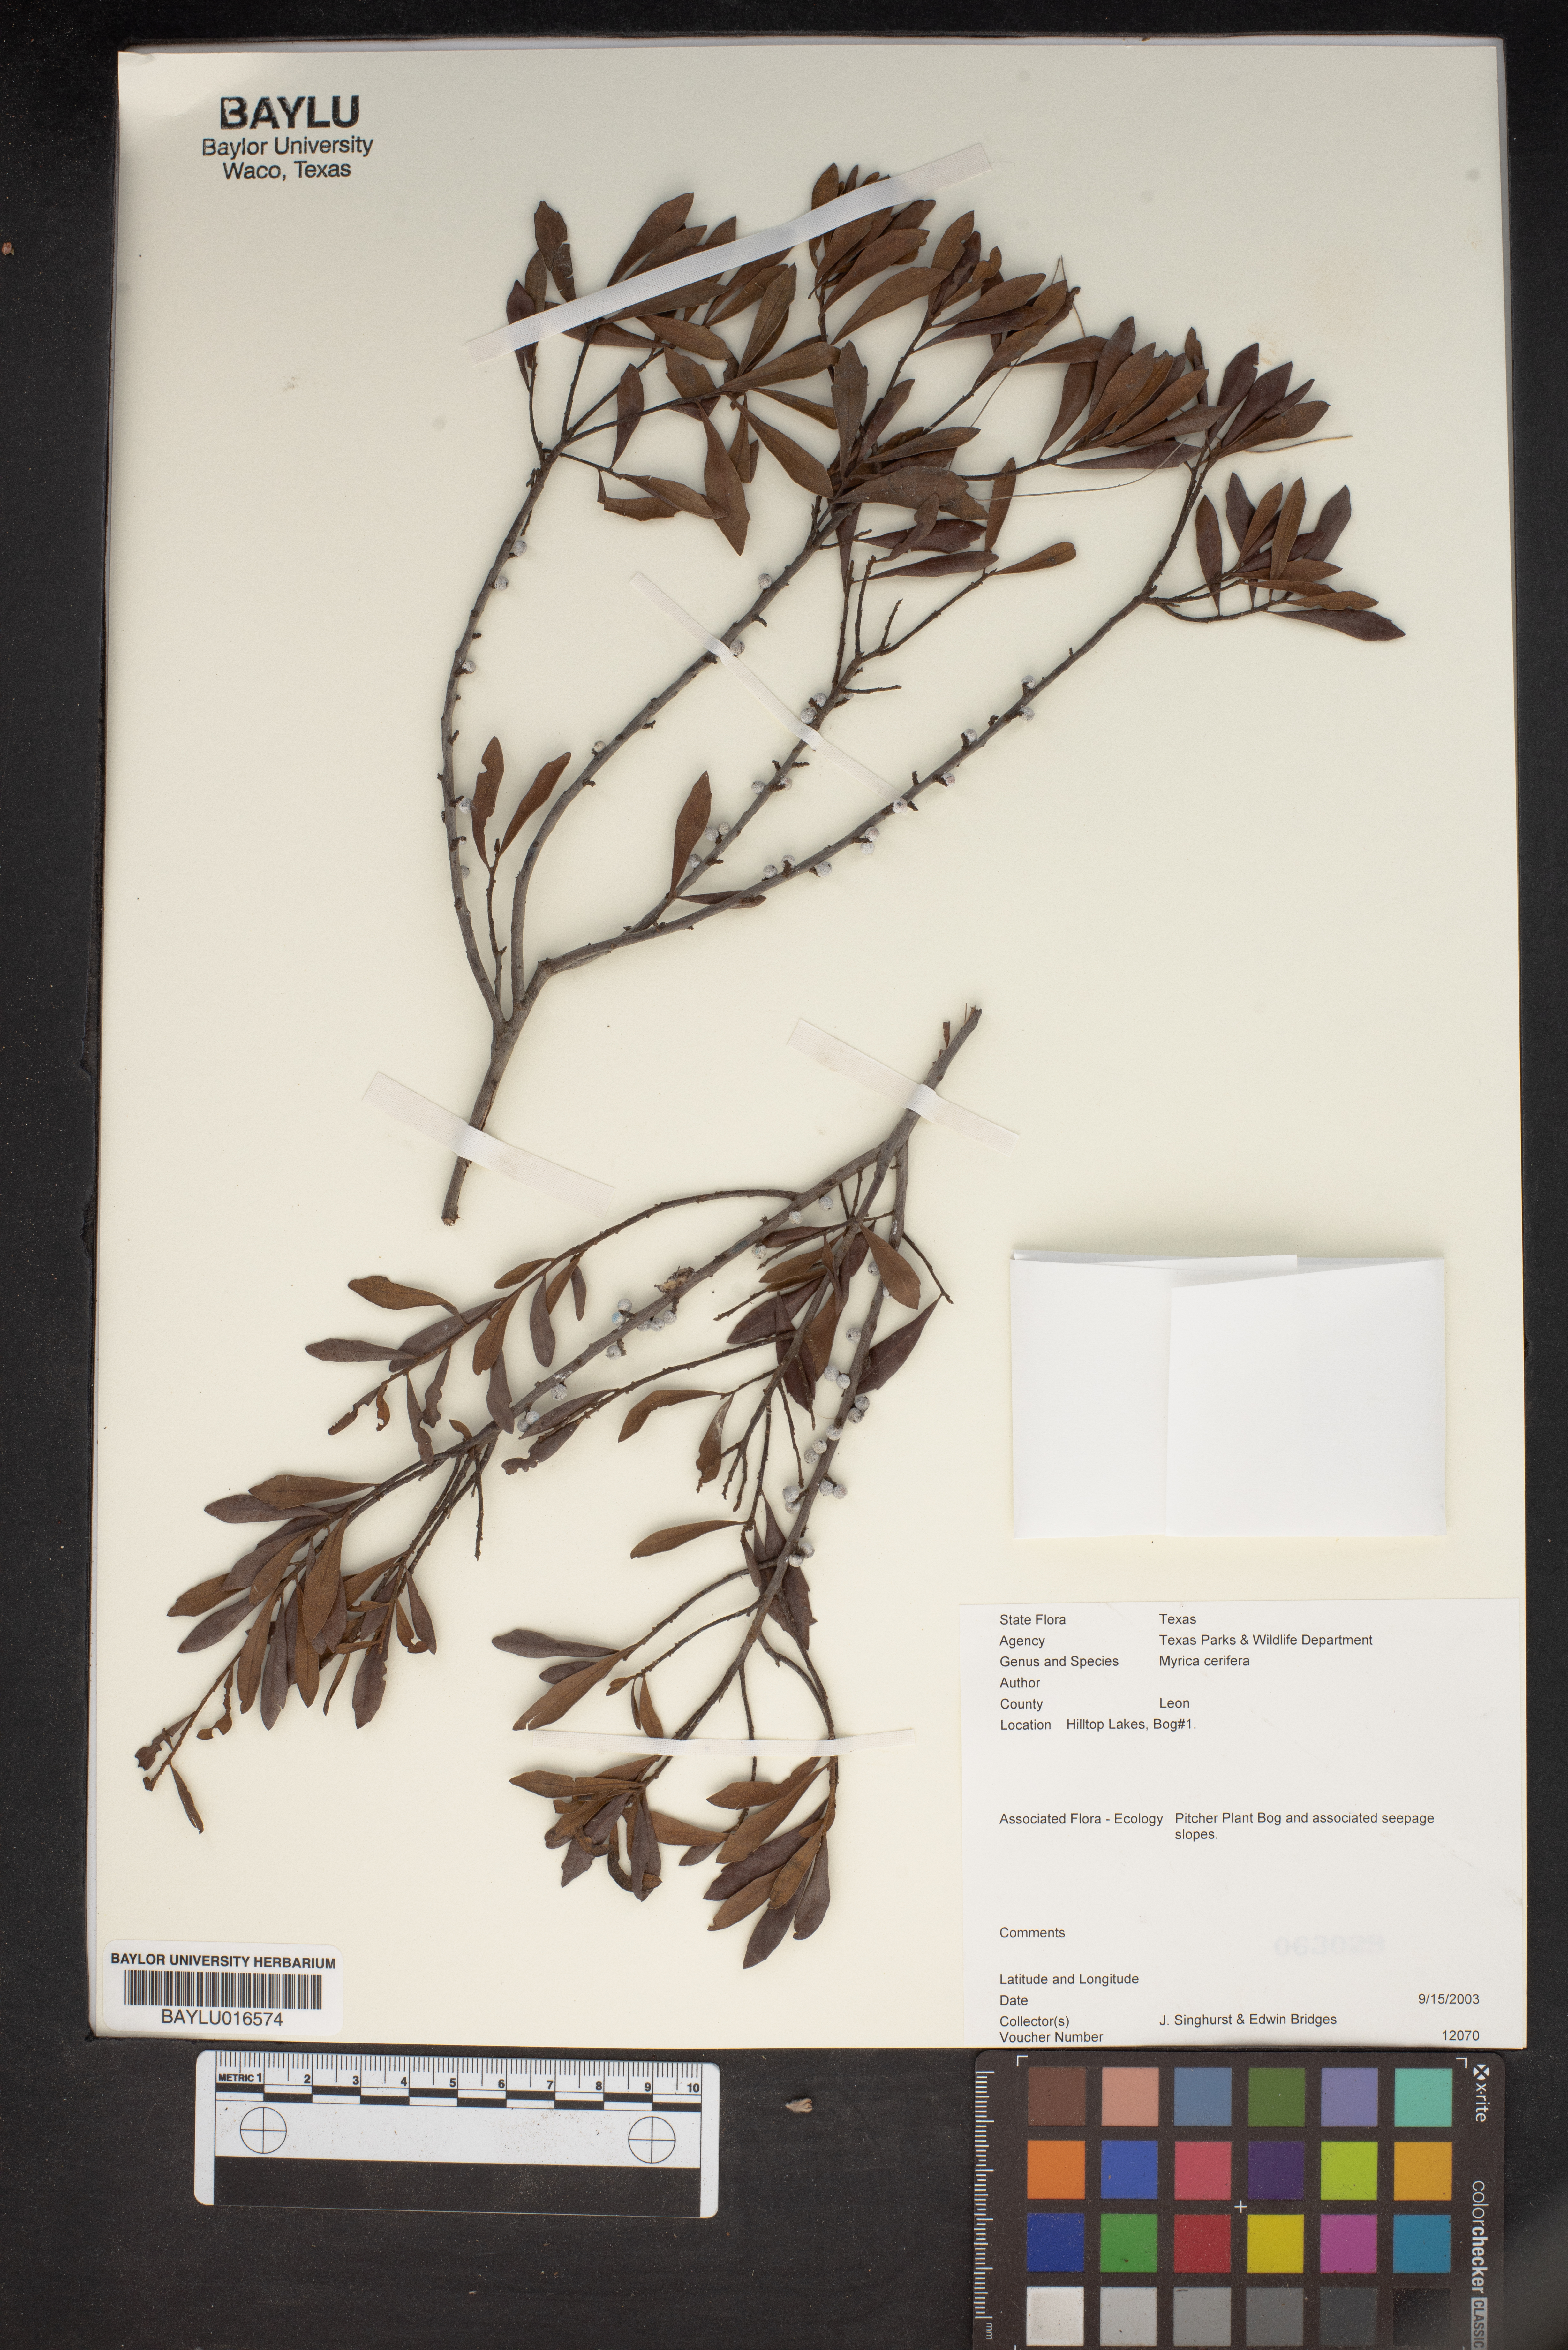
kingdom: Plantae
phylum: Tracheophyta
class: Magnoliopsida
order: Fagales
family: Myricaceae
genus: Morella
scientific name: Morella cerifera
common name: Wax myrtle
